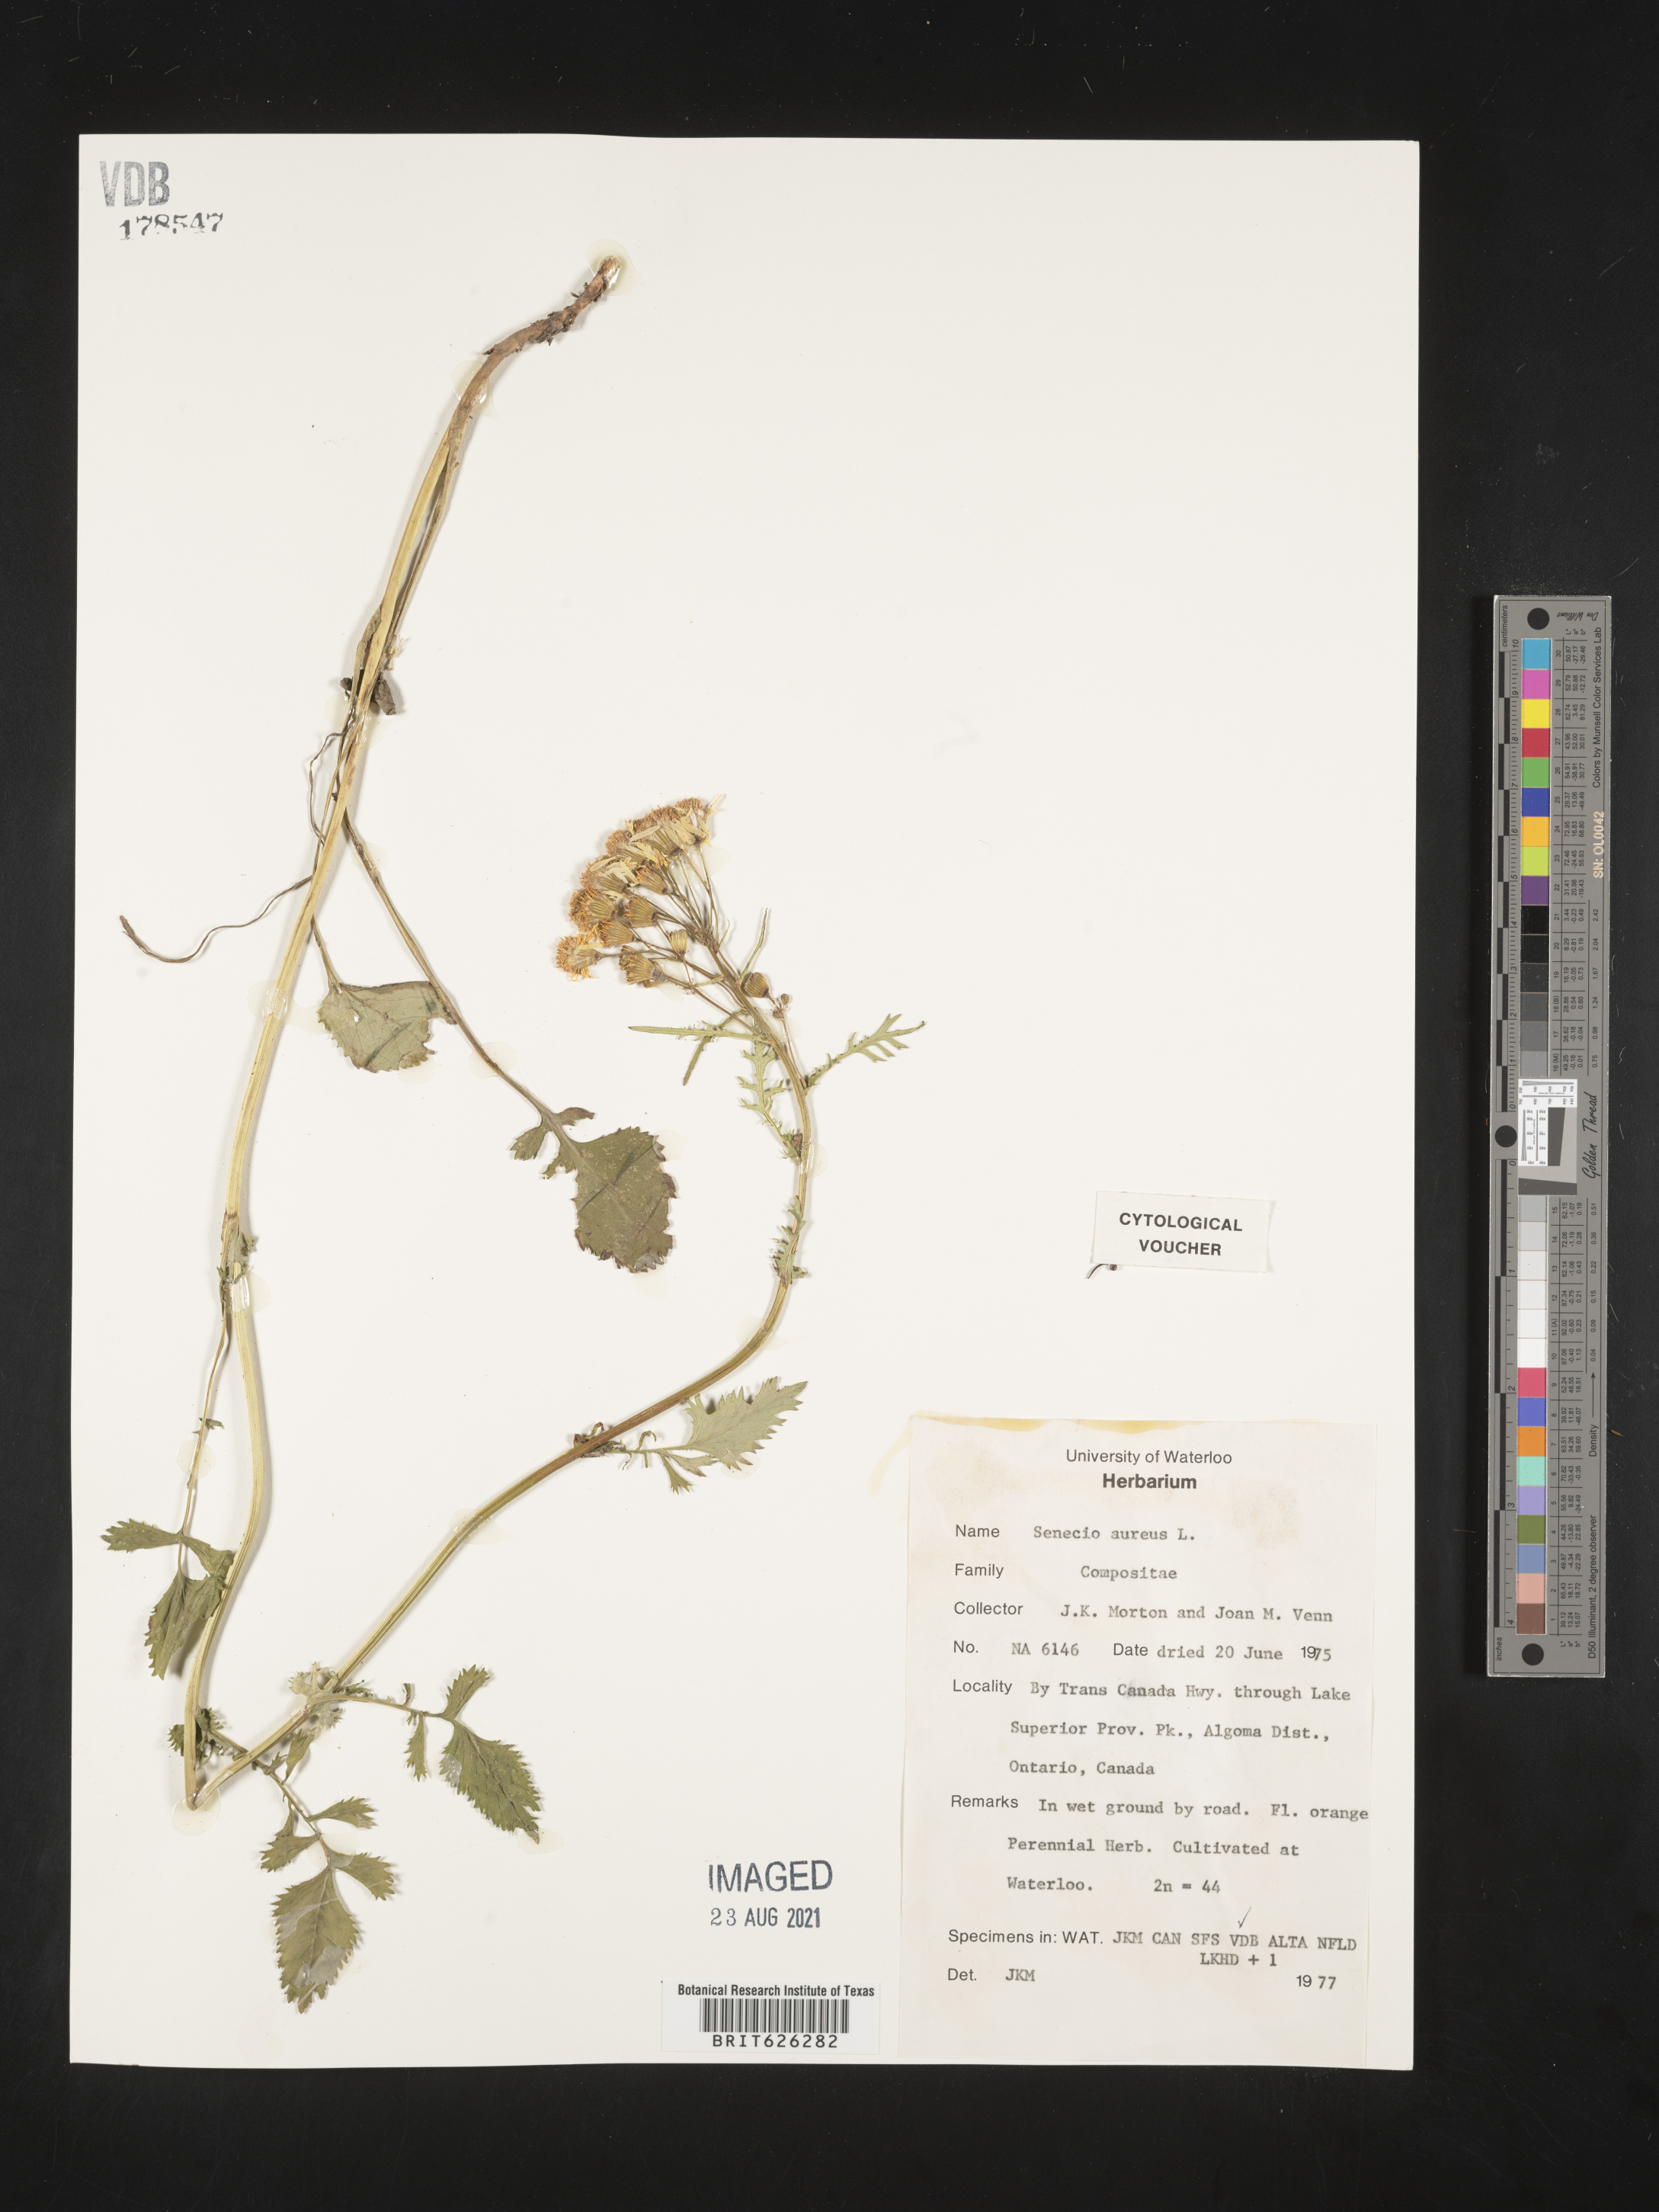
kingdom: Plantae
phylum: Tracheophyta
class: Magnoliopsida
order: Asterales
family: Asteraceae
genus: Packera
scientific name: Packera aurea
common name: Golden groundsel
